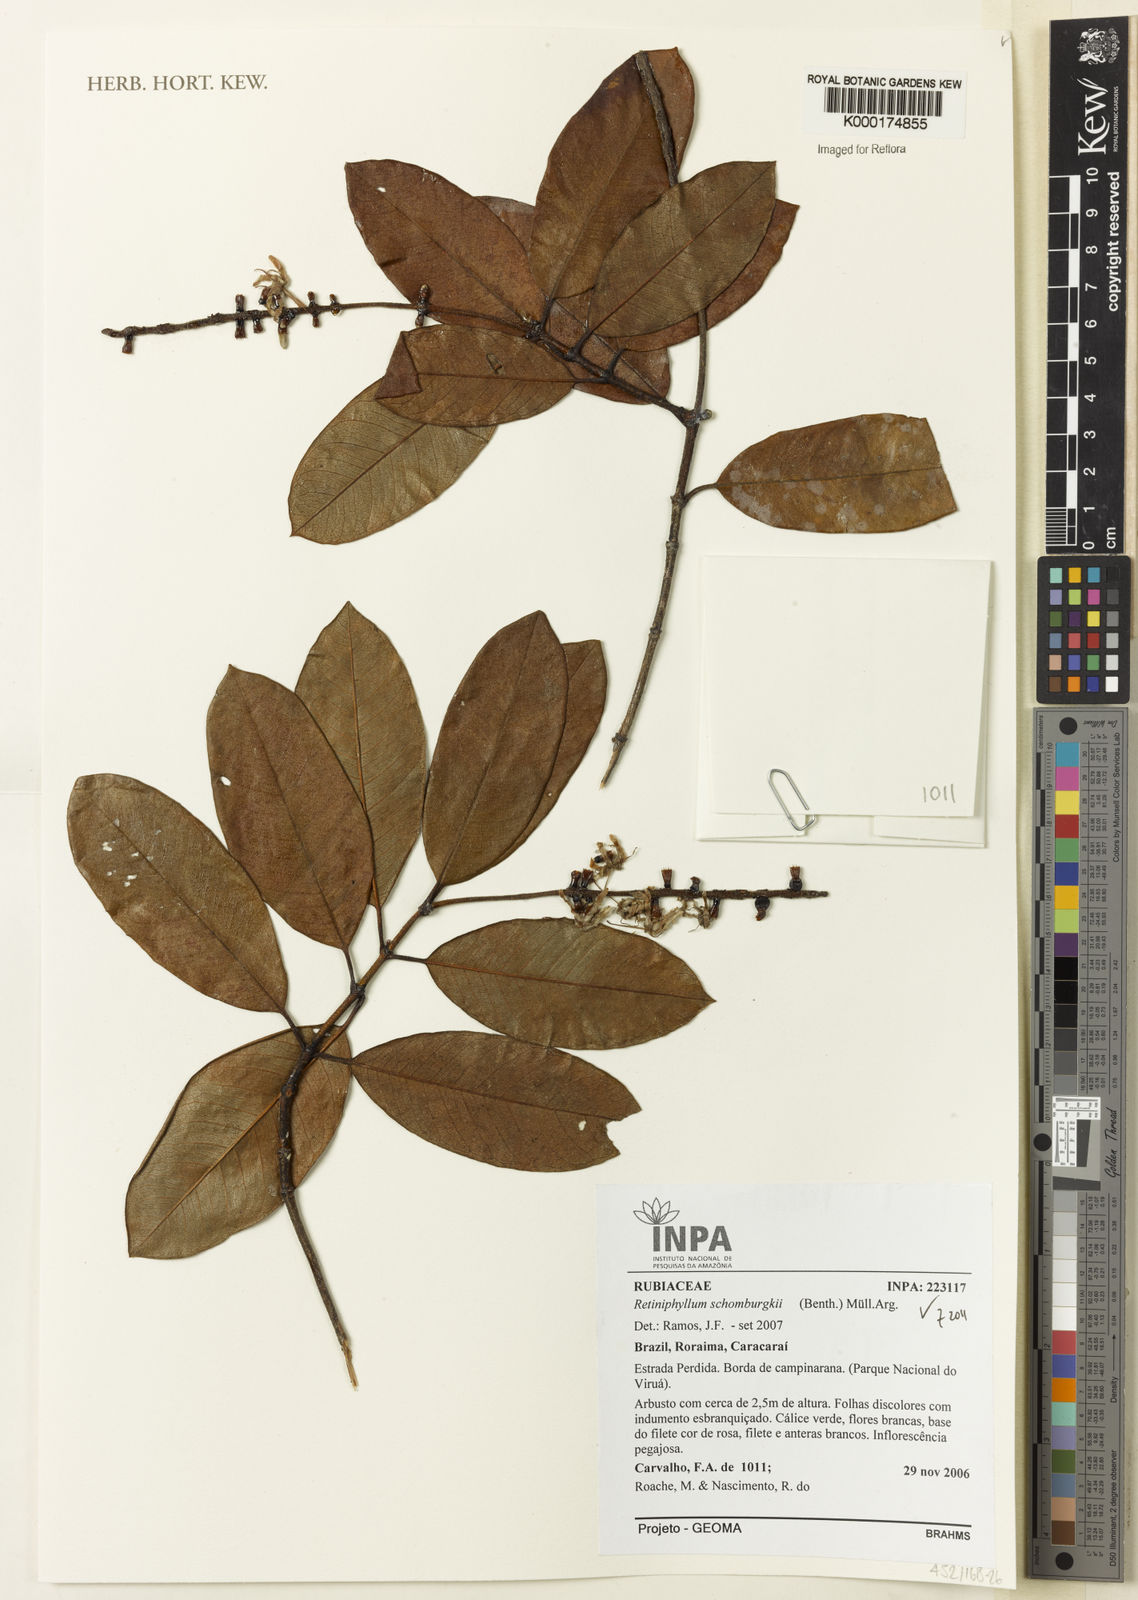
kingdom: Plantae
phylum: Tracheophyta
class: Magnoliopsida
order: Gentianales
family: Rubiaceae
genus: Retiniphyllum
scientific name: Retiniphyllum
